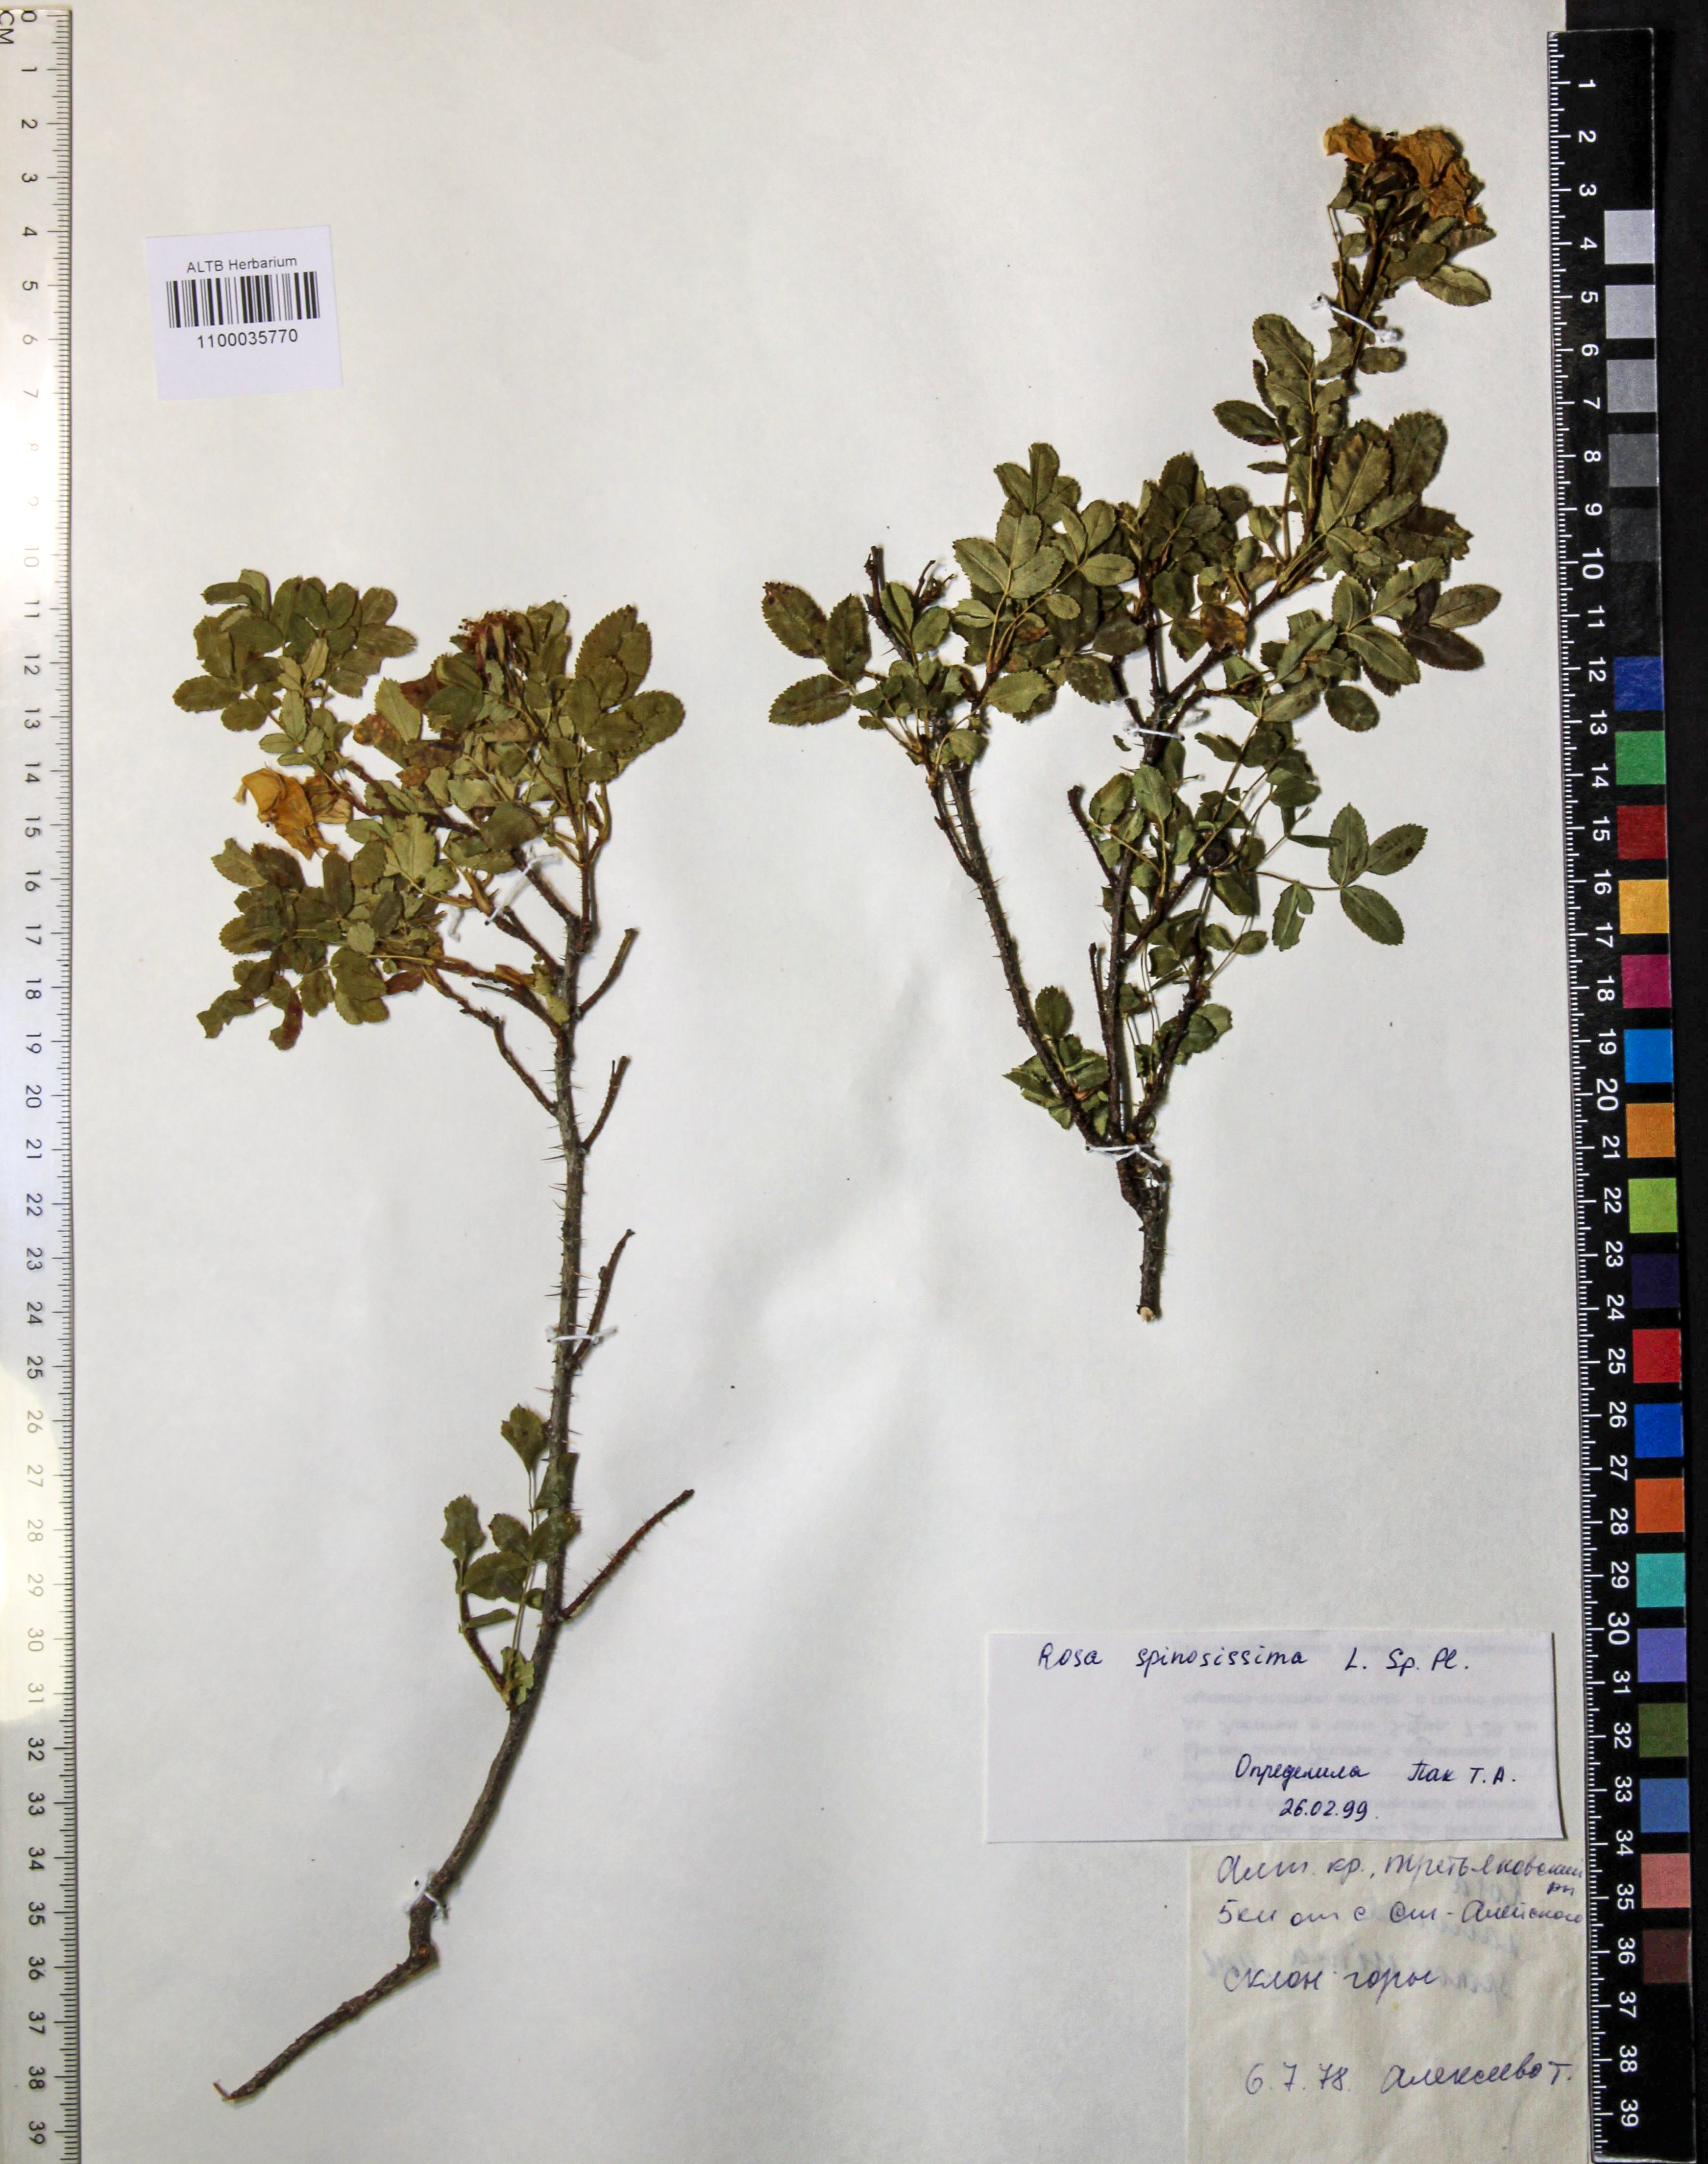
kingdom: Plantae
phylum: Tracheophyta
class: Magnoliopsida
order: Rosales
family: Rosaceae
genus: Rosa
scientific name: Rosa spinosissima
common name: Burnet rose
